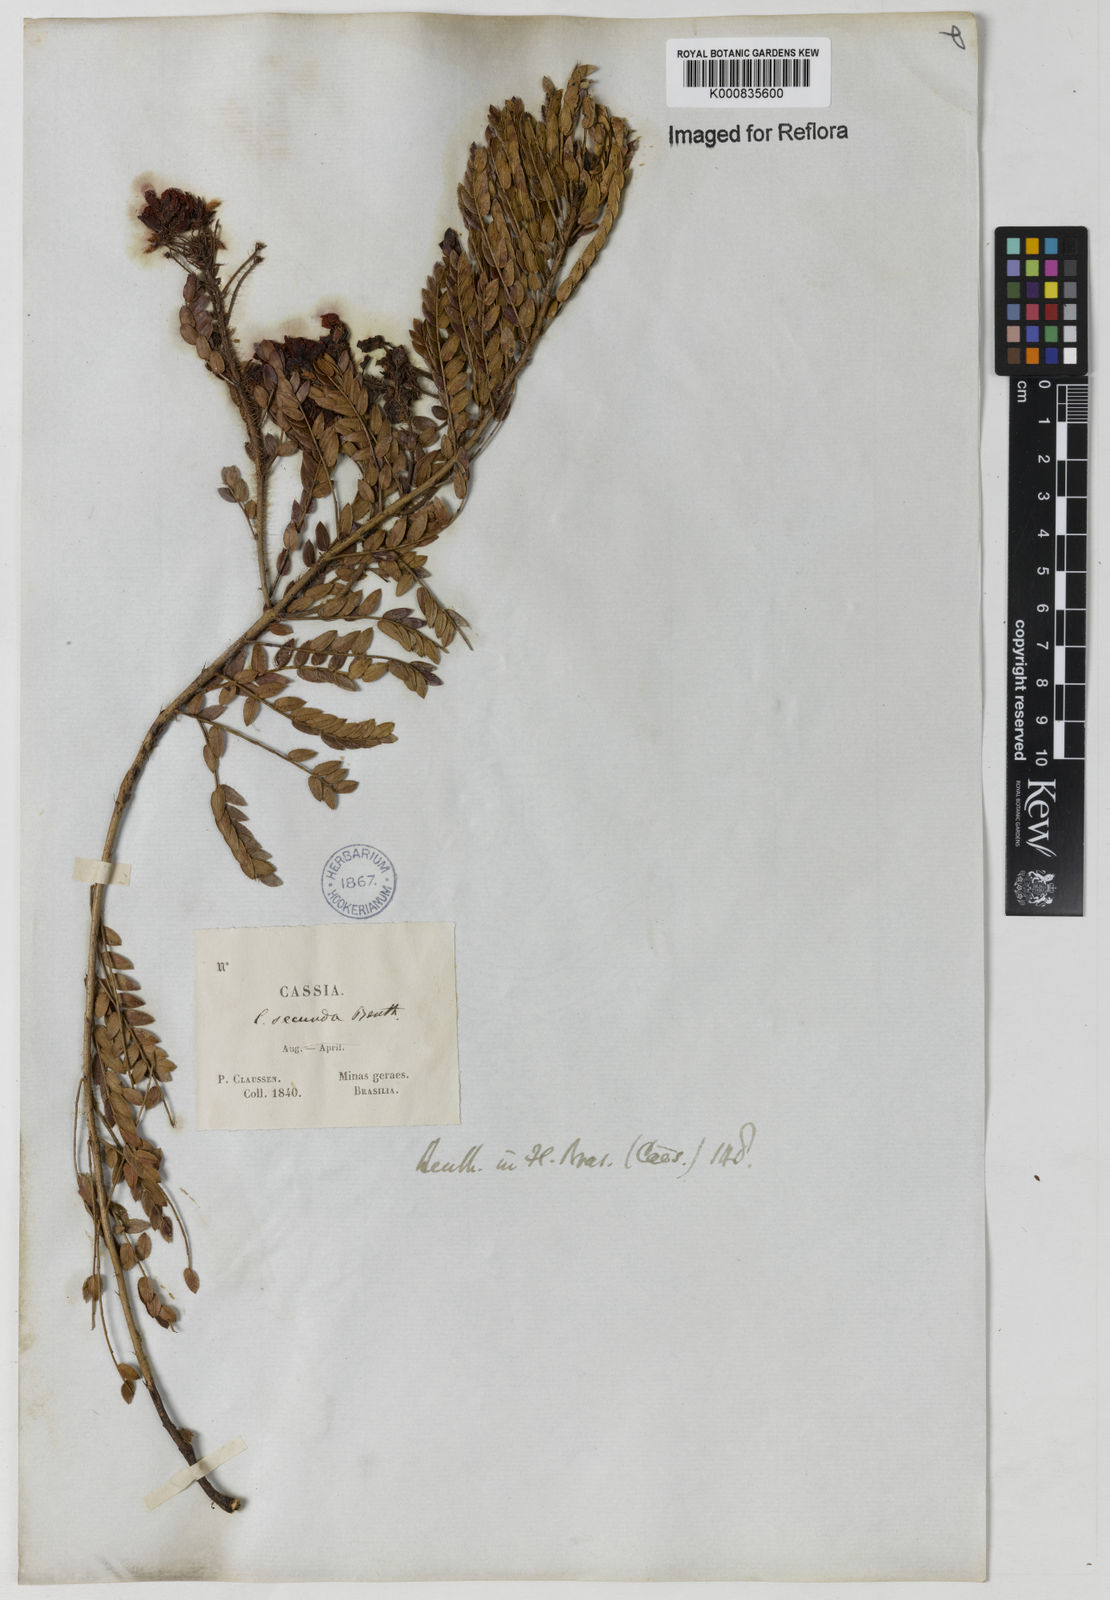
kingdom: Plantae
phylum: Tracheophyta
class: Magnoliopsida
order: Fabales
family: Fabaceae
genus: Chamaecrista
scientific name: Chamaecrista secunda
